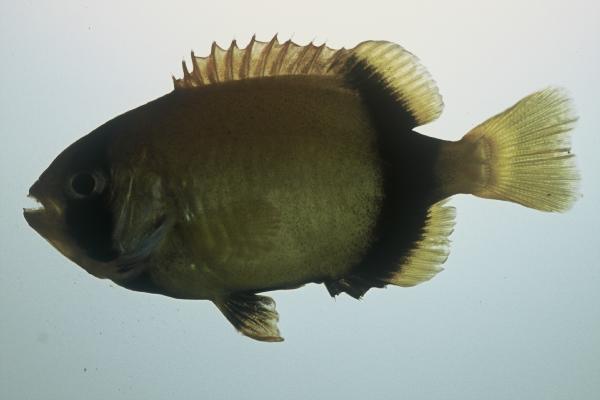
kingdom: Animalia
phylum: Chordata
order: Perciformes
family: Oplegnathidae
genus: Oplegnathus
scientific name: Oplegnathus conwayi
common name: Cape knifejaw
